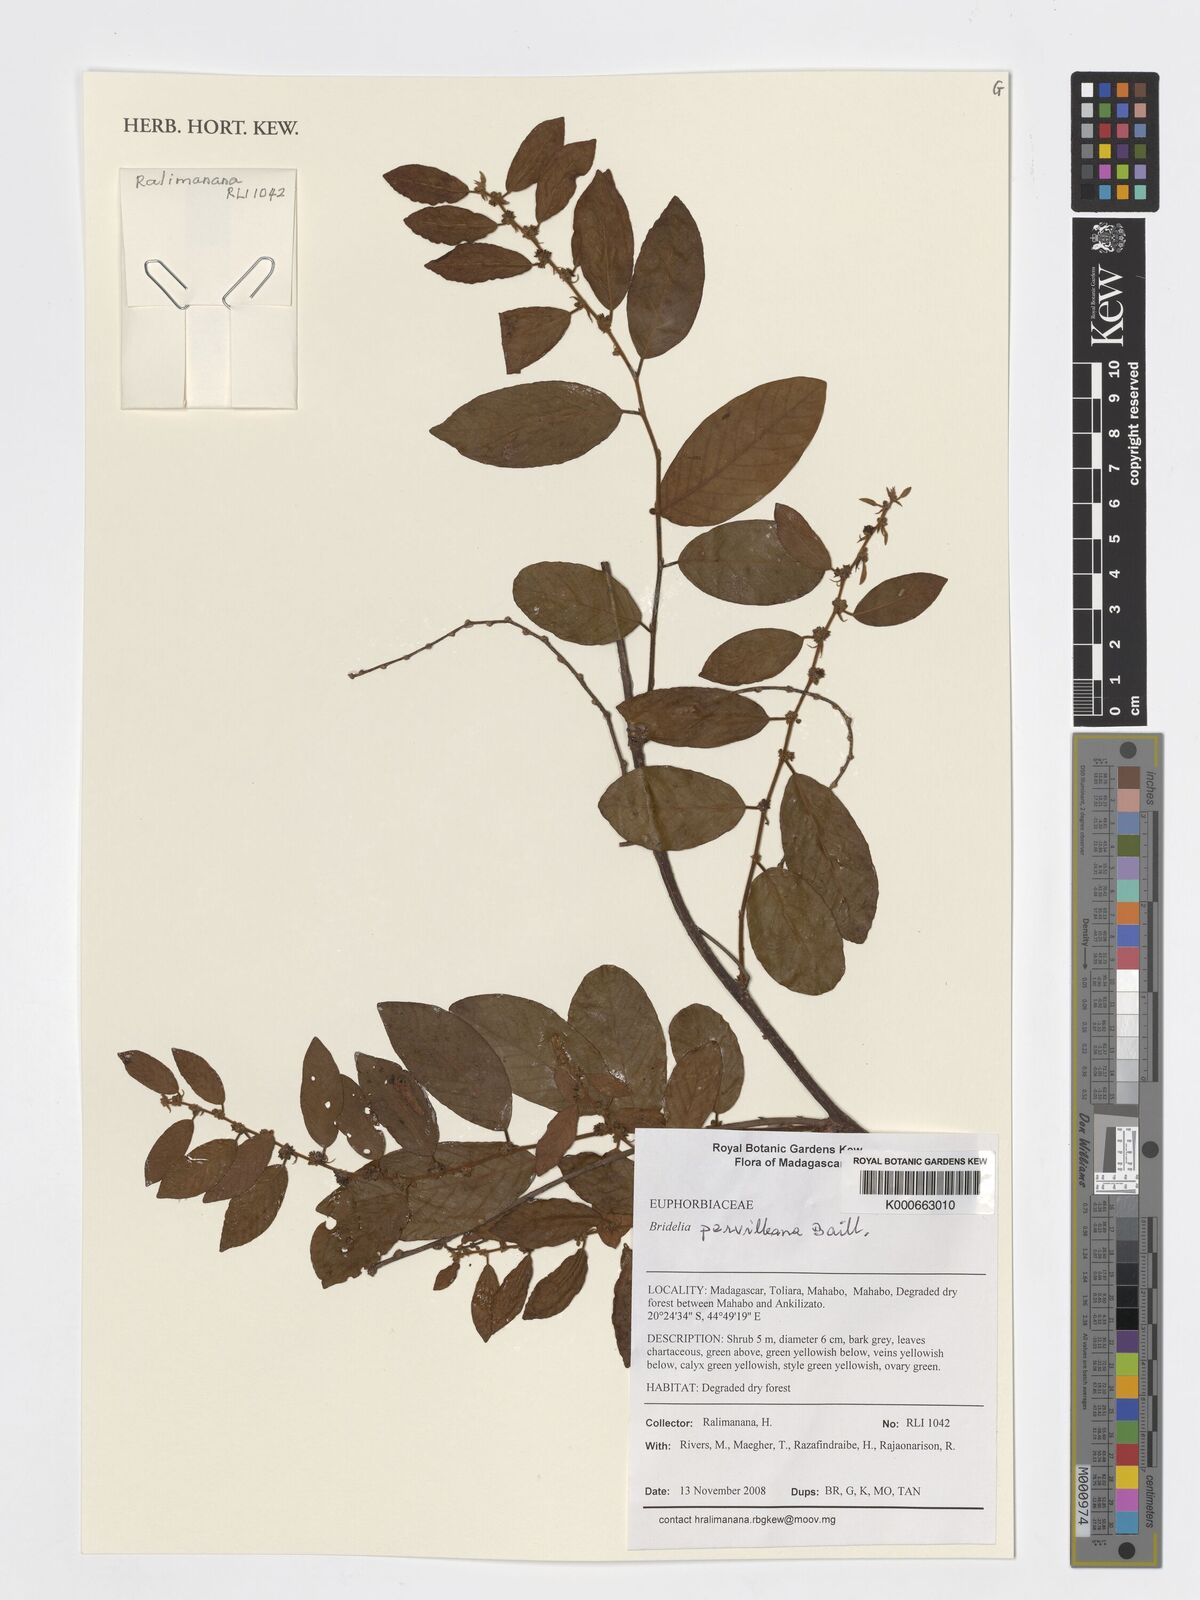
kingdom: Plantae
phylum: Tracheophyta
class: Magnoliopsida
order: Malpighiales
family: Phyllanthaceae
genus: Bridelia
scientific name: Bridelia pervilleana
